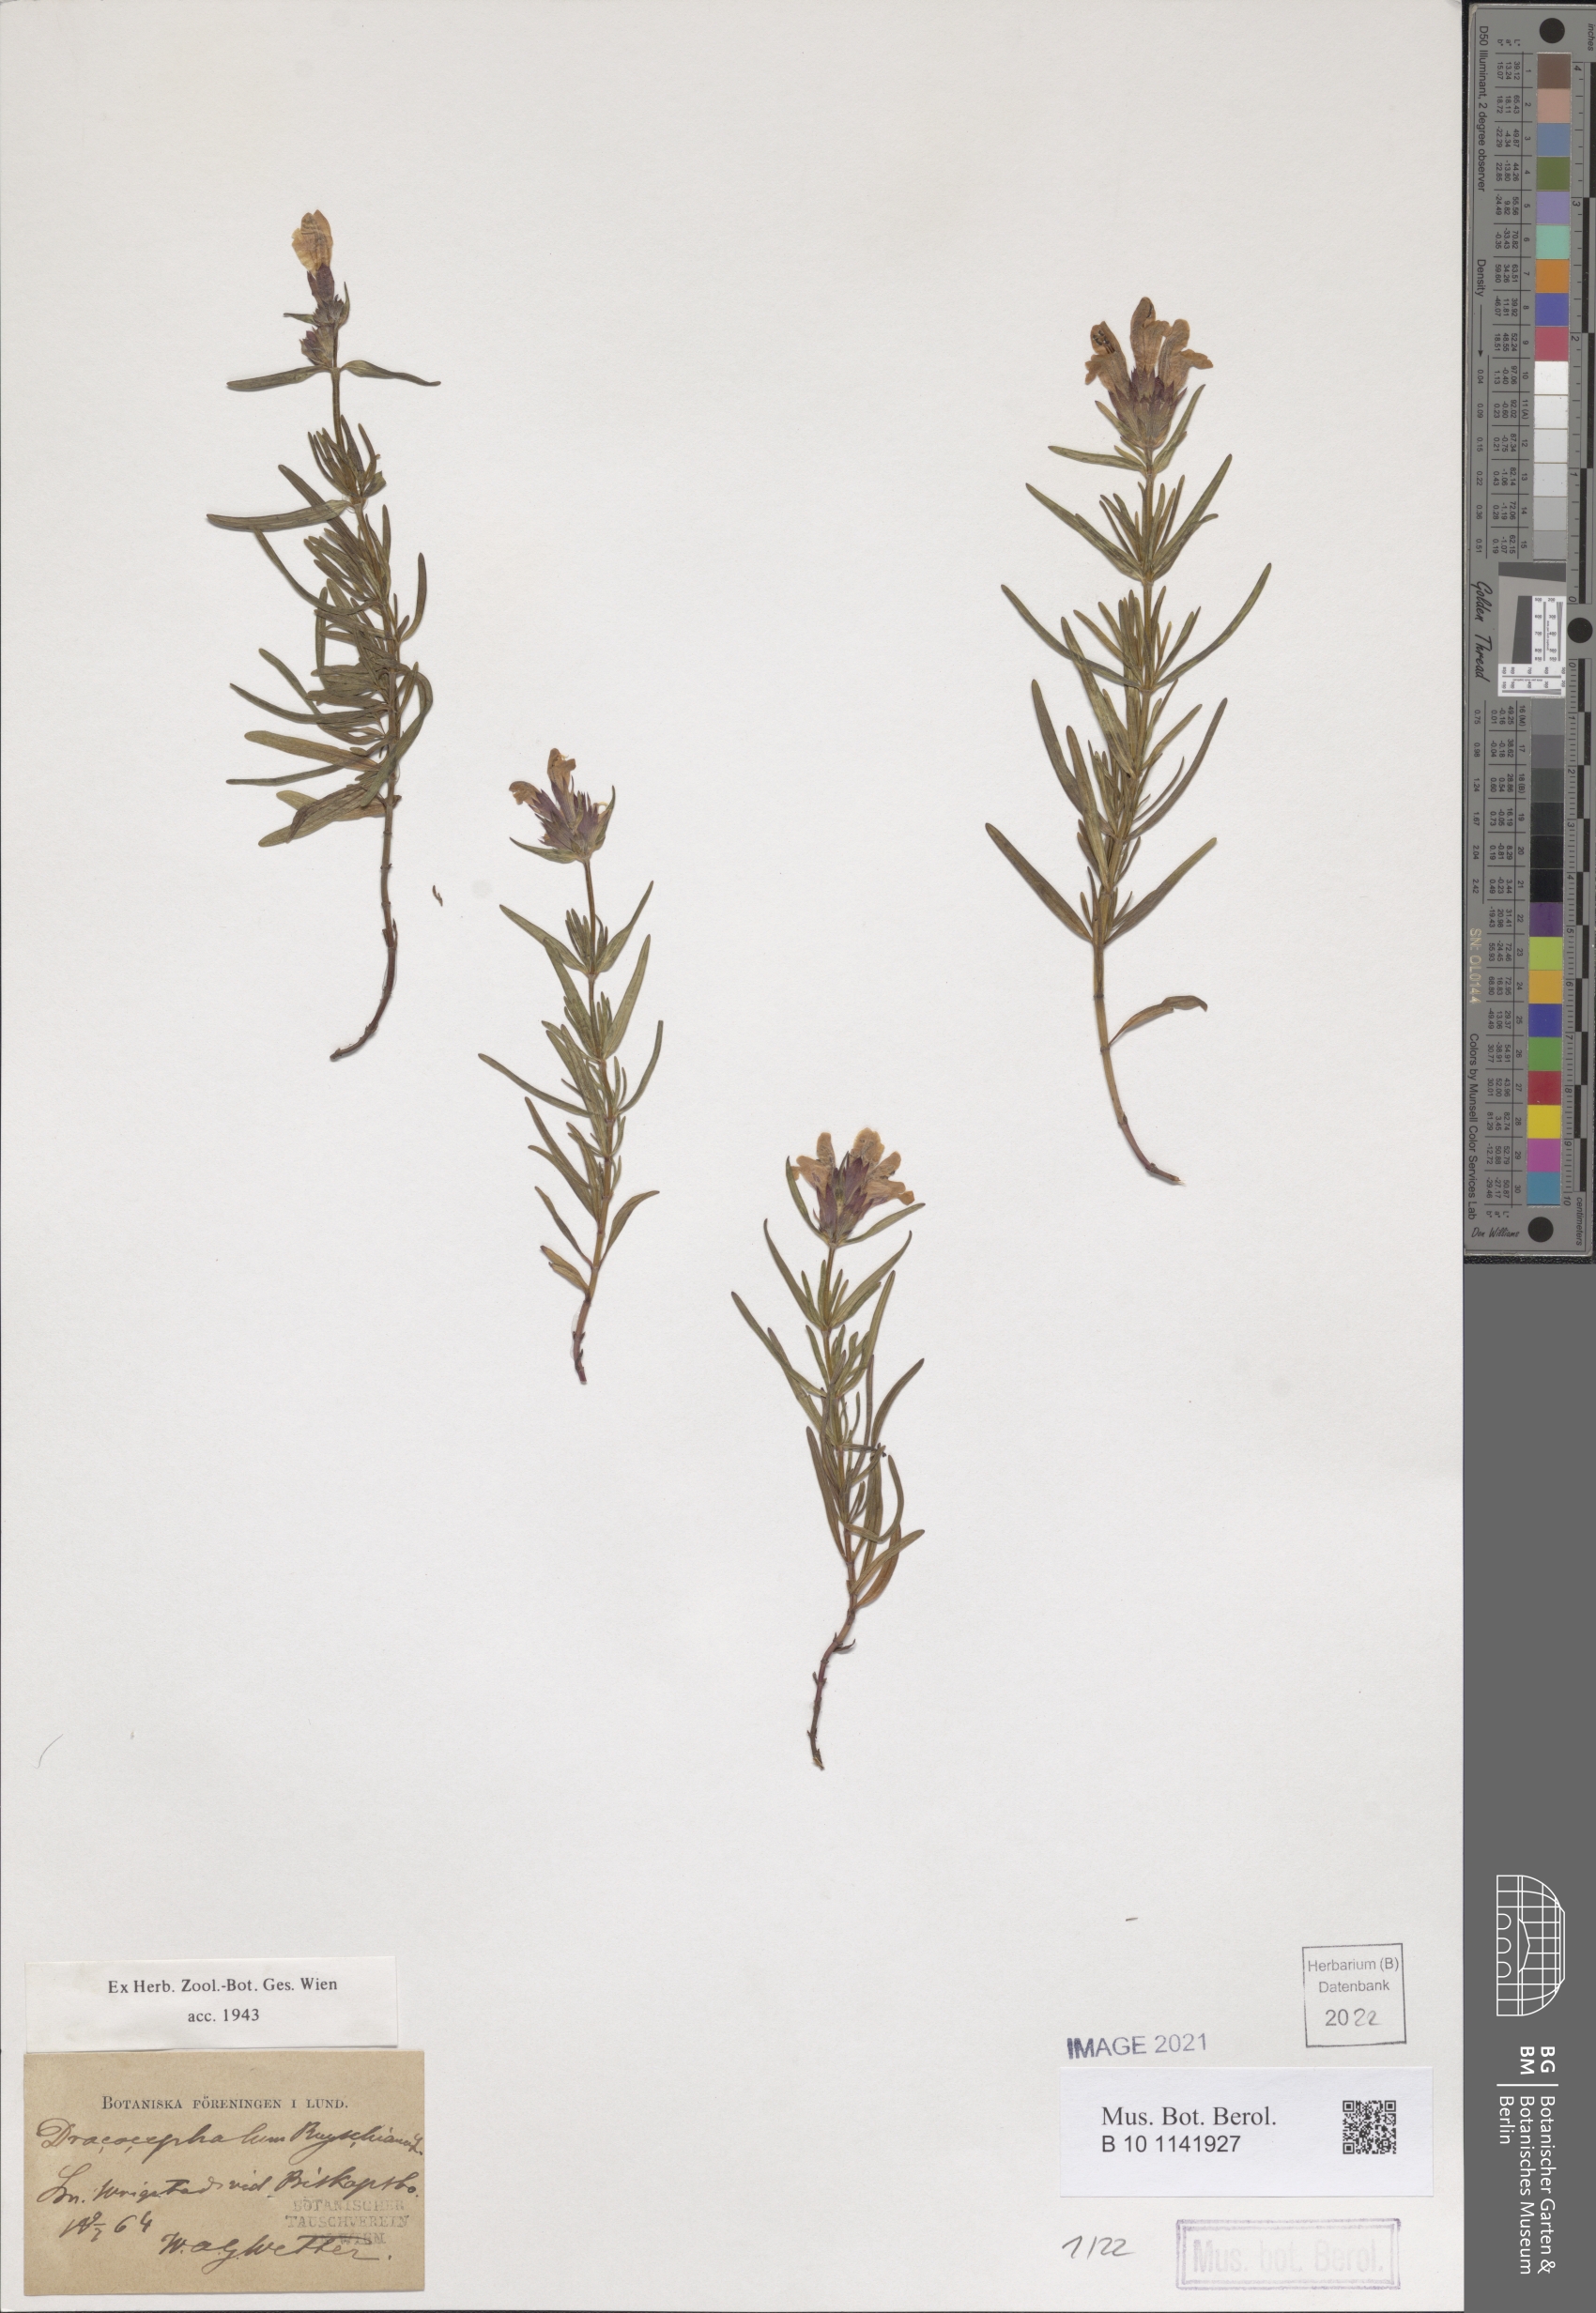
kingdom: Plantae
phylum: Tracheophyta
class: Magnoliopsida
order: Lamiales
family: Lamiaceae
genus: Dracocephalum
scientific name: Dracocephalum ruyschiana
